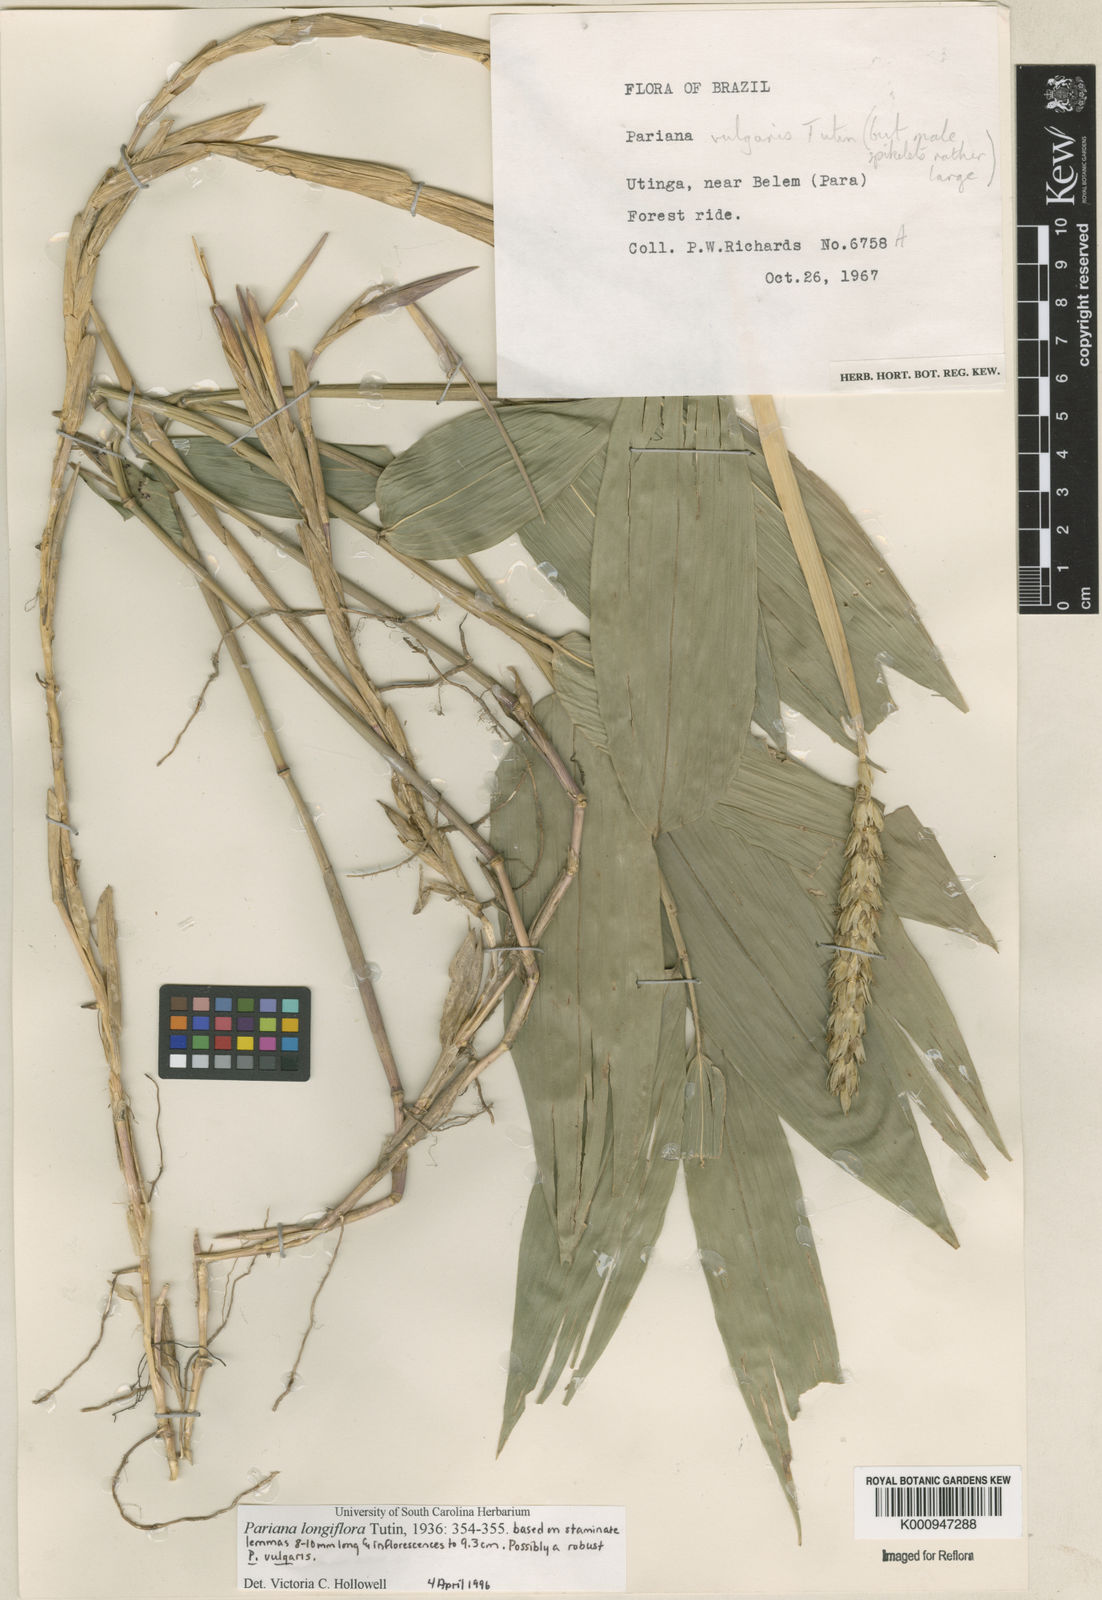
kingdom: Plantae
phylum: Tracheophyta
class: Liliopsida
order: Poales
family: Poaceae
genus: Pariana
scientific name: Pariana
